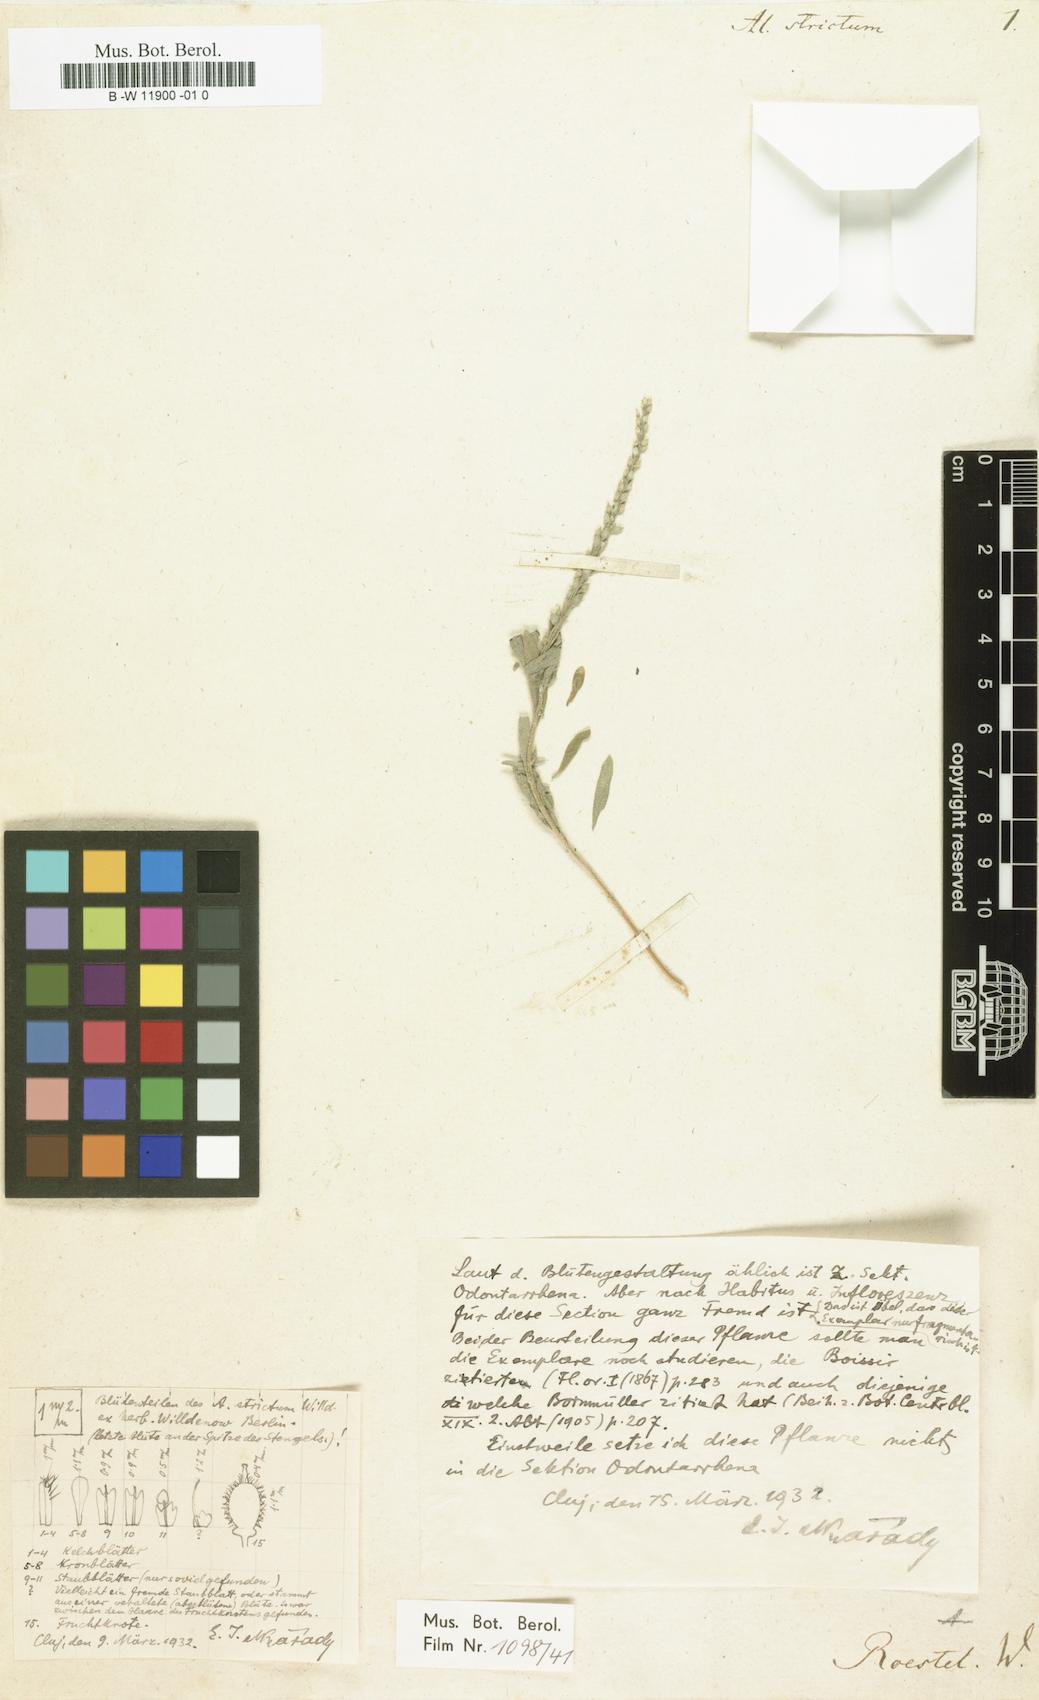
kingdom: Plantae
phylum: Tracheophyta
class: Magnoliopsida
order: Brassicales
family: Brassicaceae
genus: Alyssum
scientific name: Alyssum strictum
